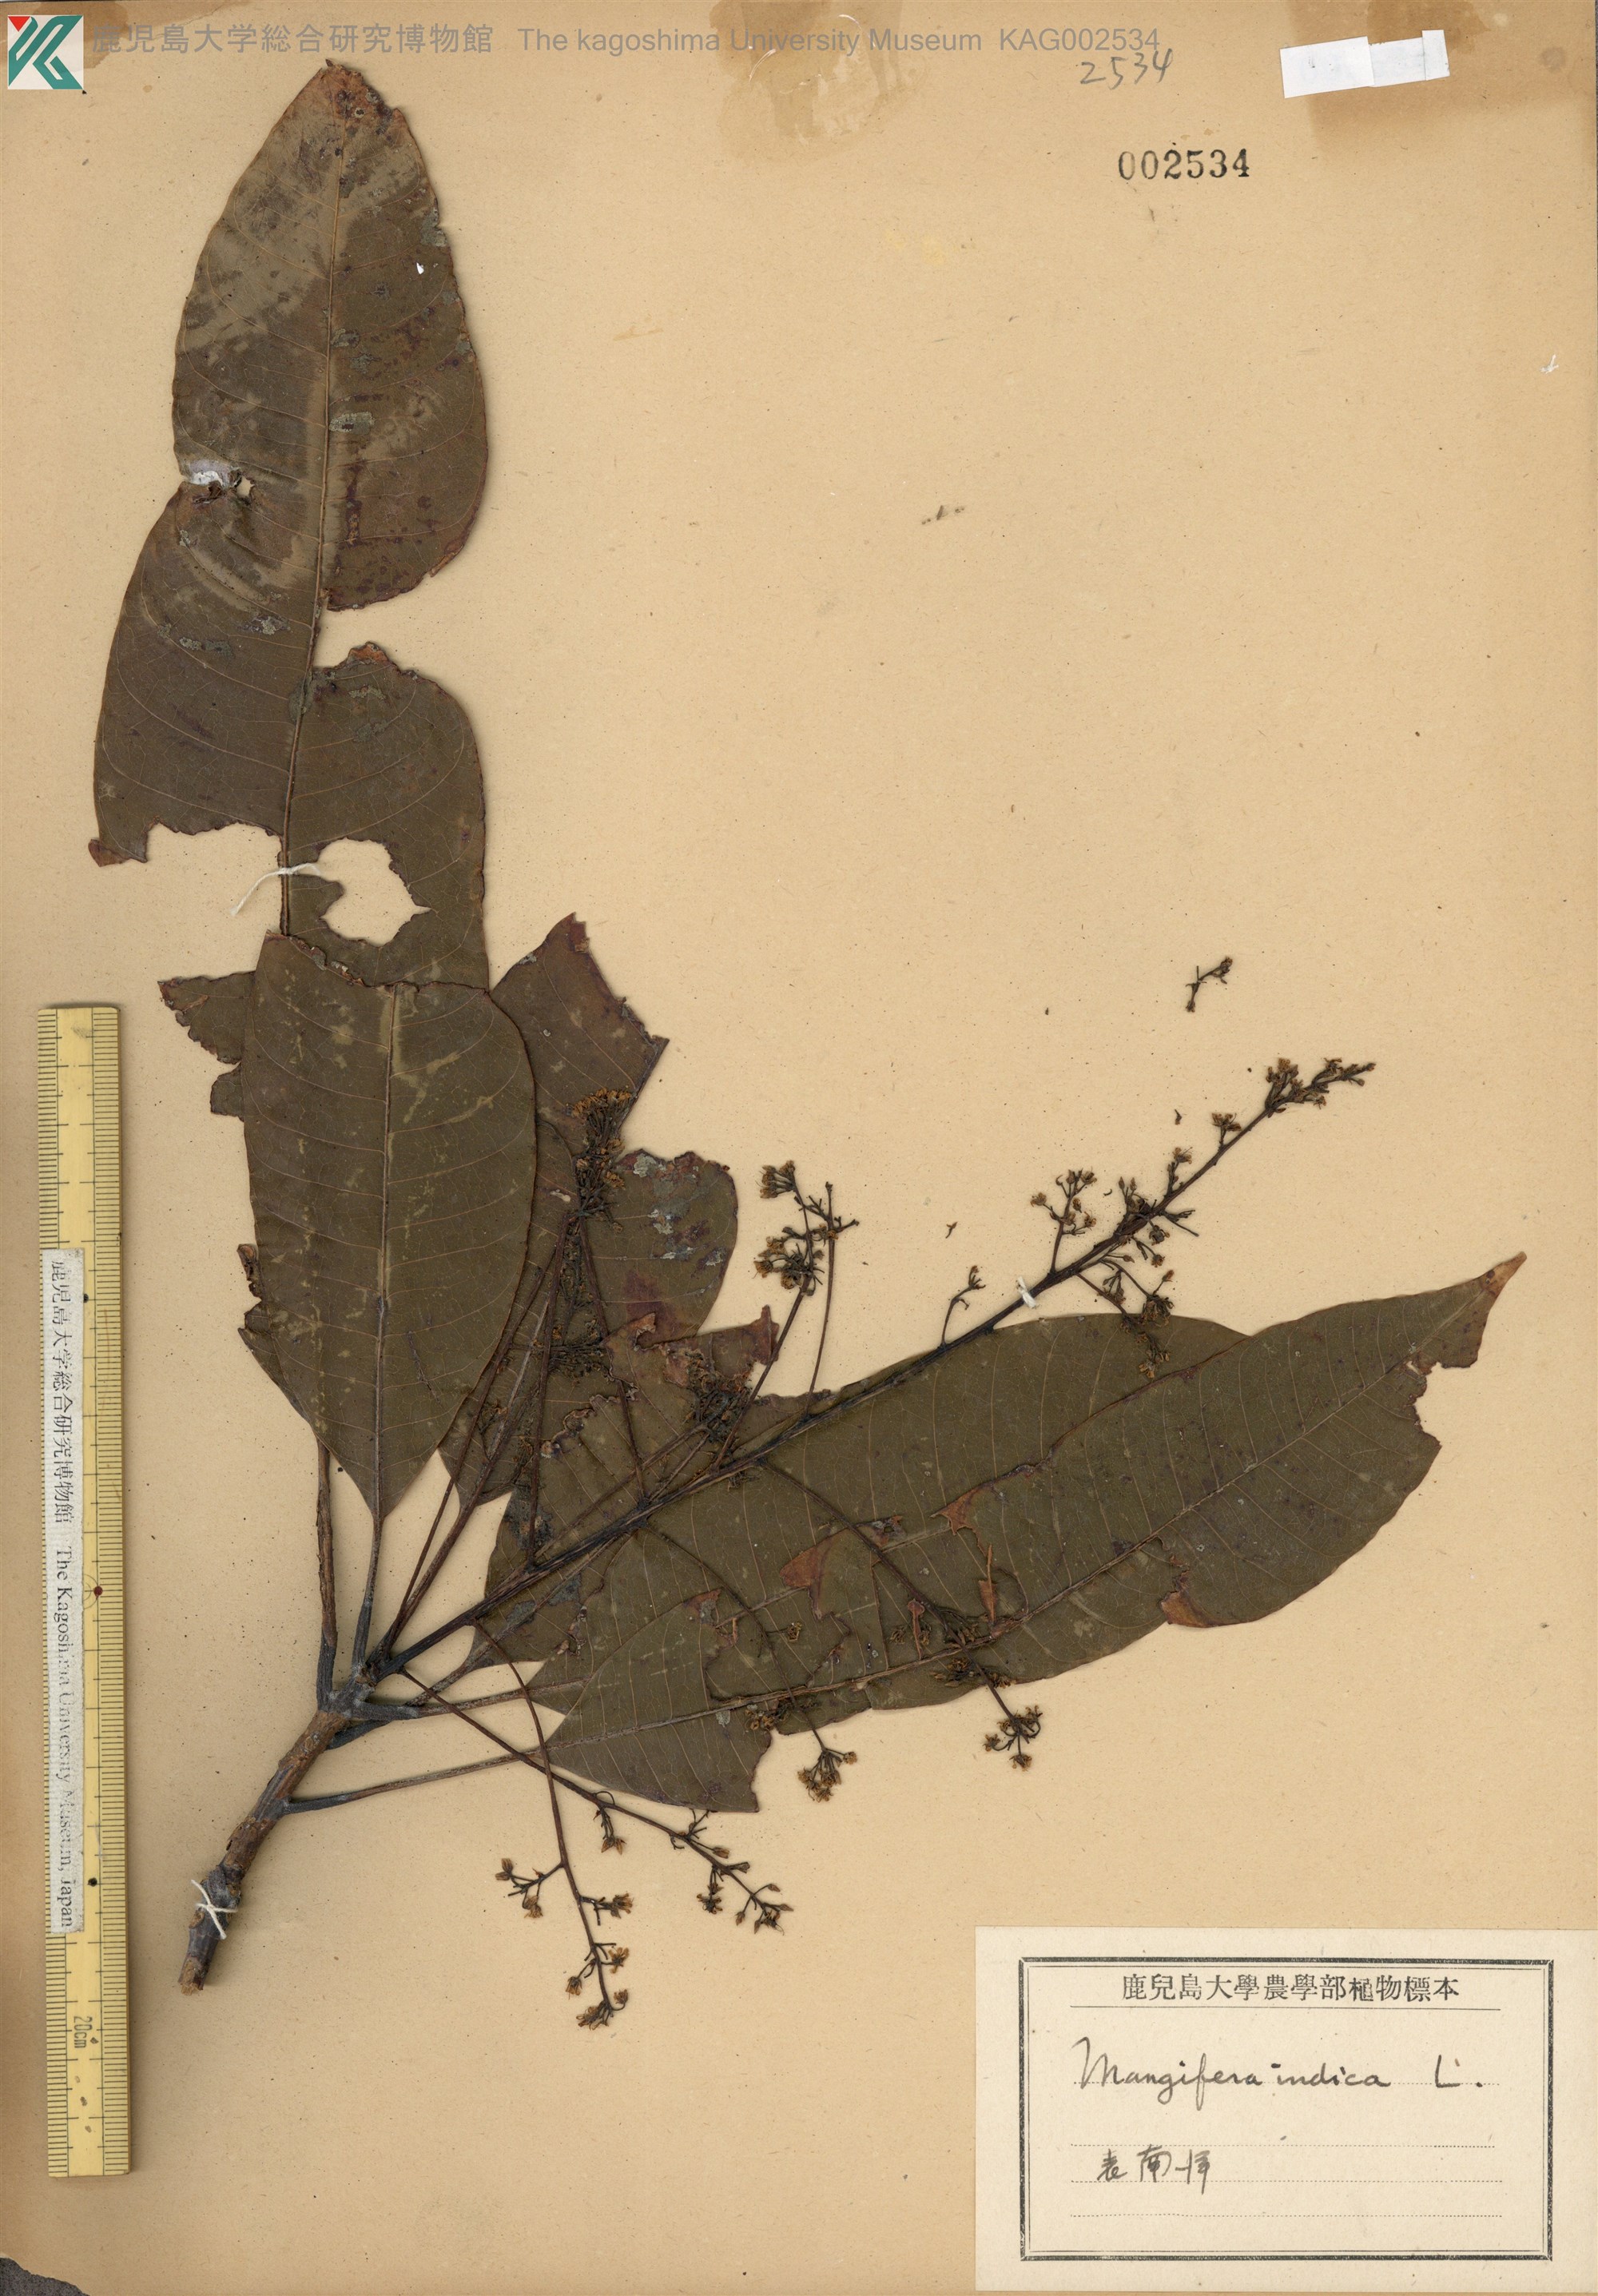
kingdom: Plantae
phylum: Tracheophyta
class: Magnoliopsida
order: Sapindales
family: Anacardiaceae
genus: Mangifera
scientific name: Mangifera indica
